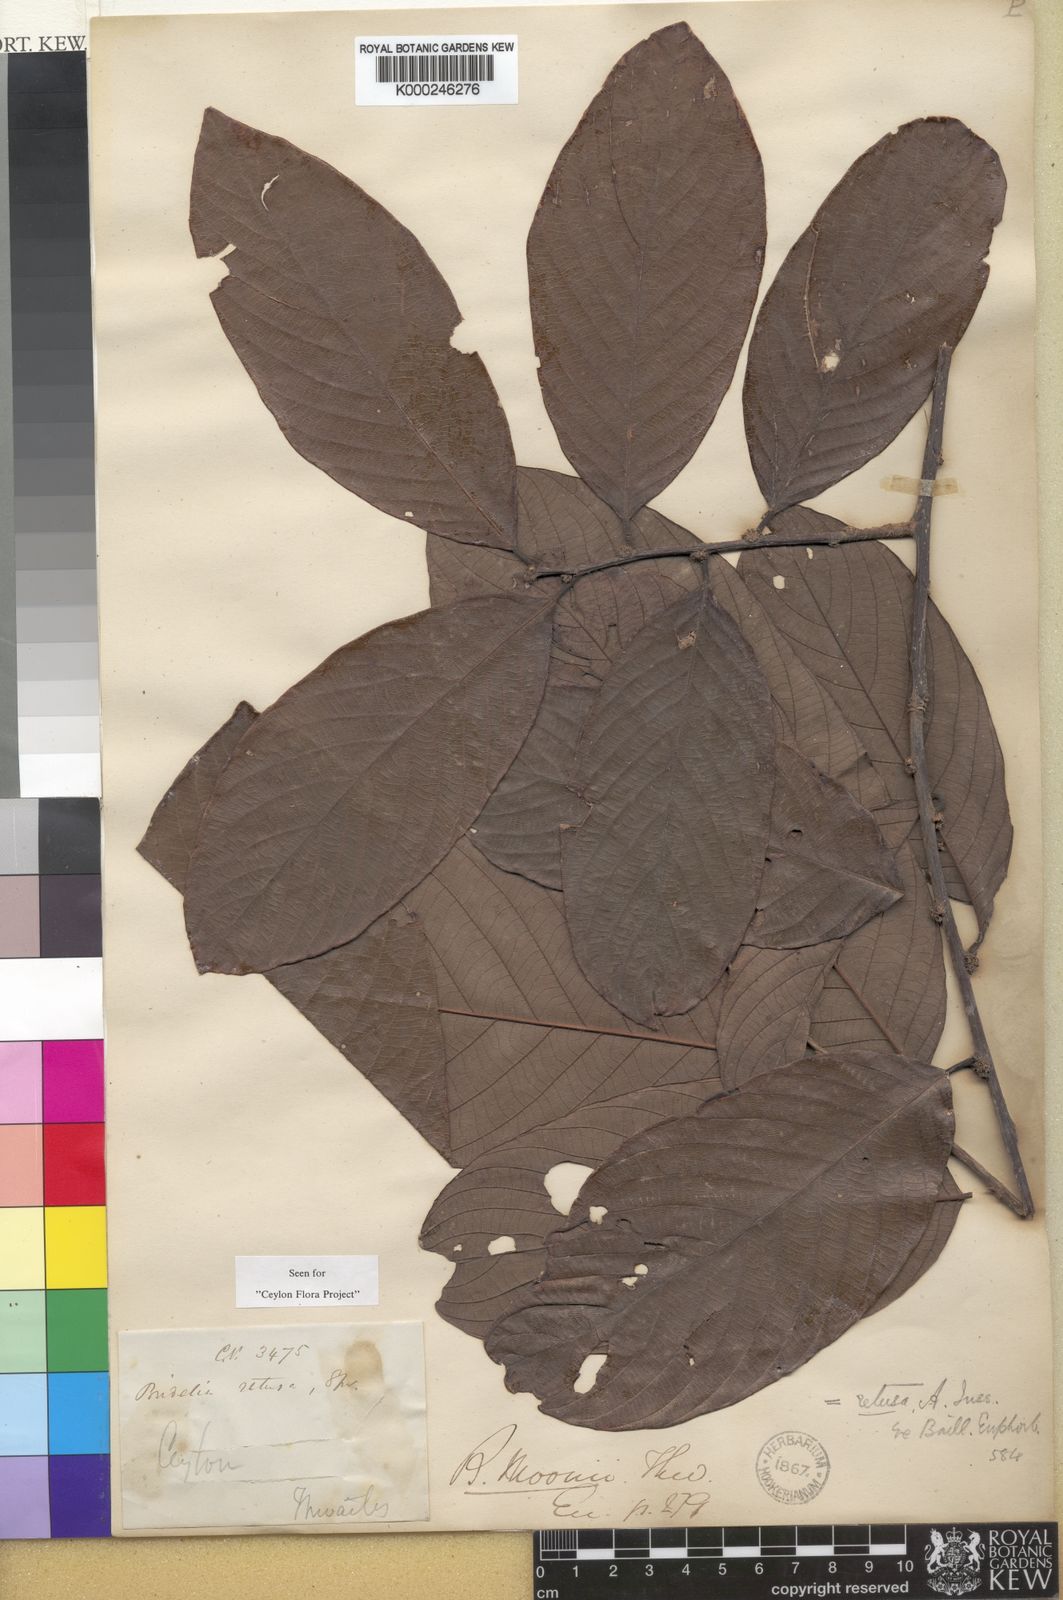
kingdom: Plantae
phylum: Tracheophyta
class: Magnoliopsida
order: Malpighiales
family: Phyllanthaceae
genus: Bridelia
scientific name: Bridelia moonii
